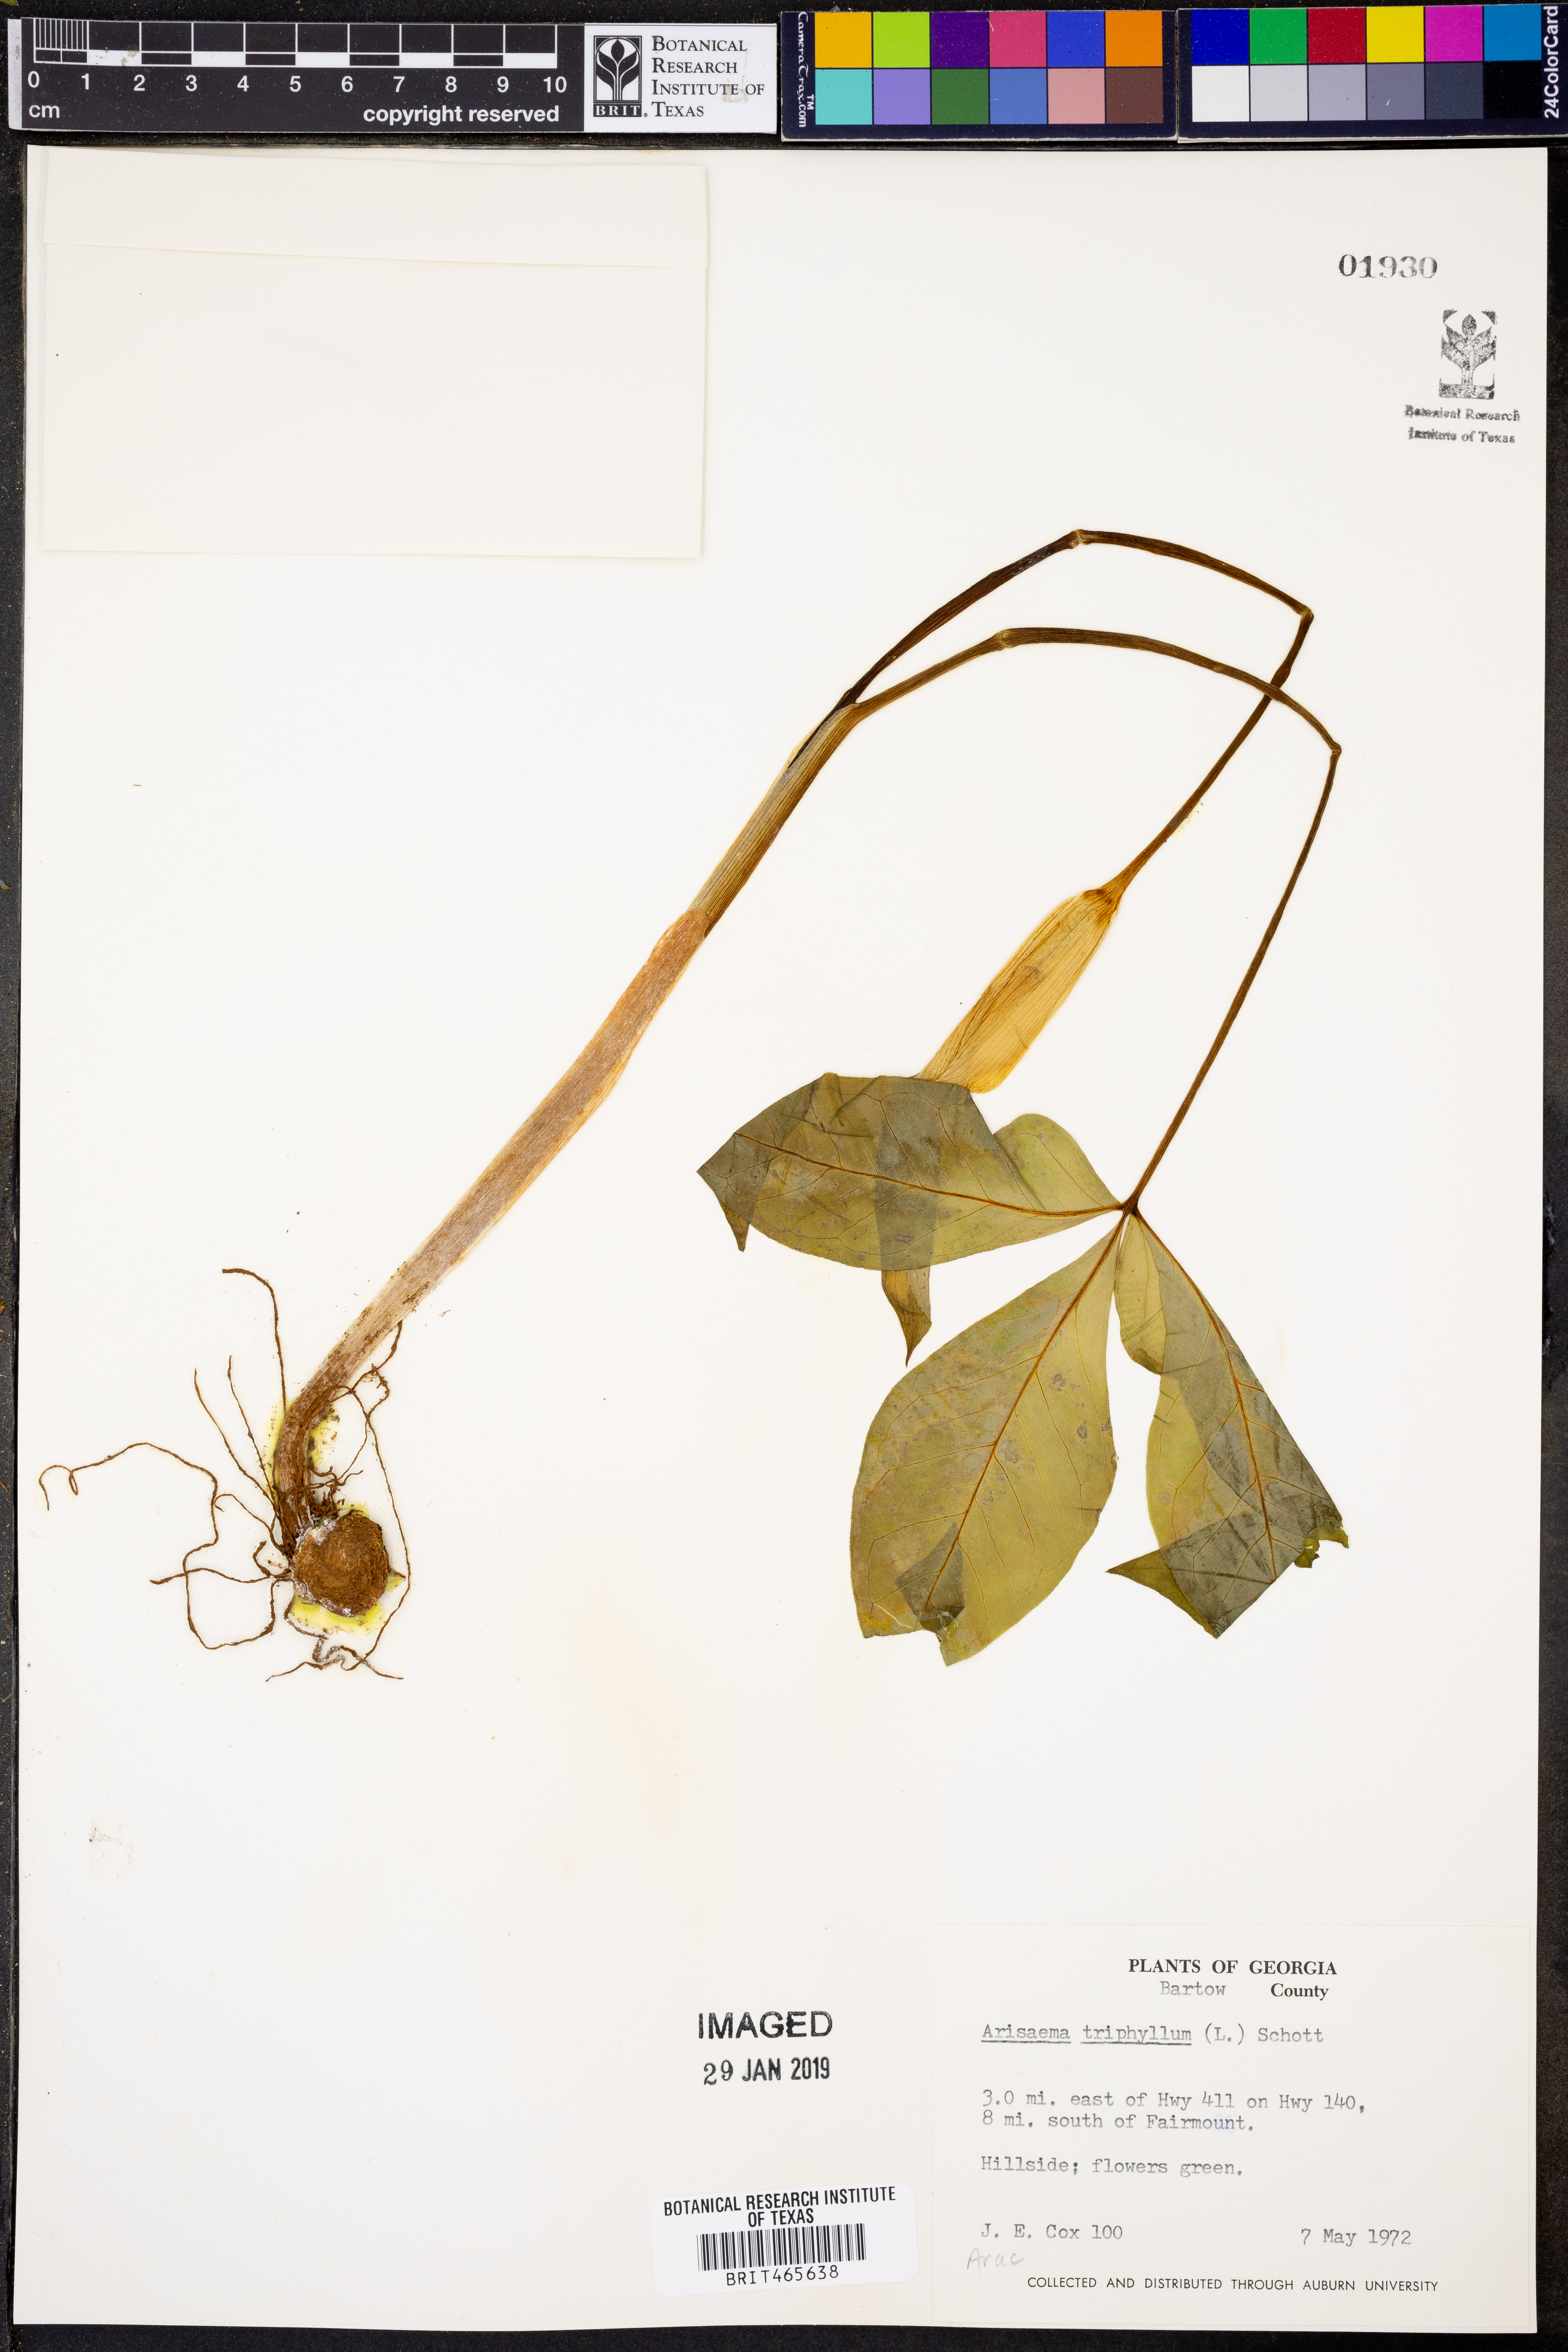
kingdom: Plantae
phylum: Tracheophyta
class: Liliopsida
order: Alismatales
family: Araceae
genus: Arisaema
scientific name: Arisaema triphyllum
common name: Jack-in-the-pulpit
